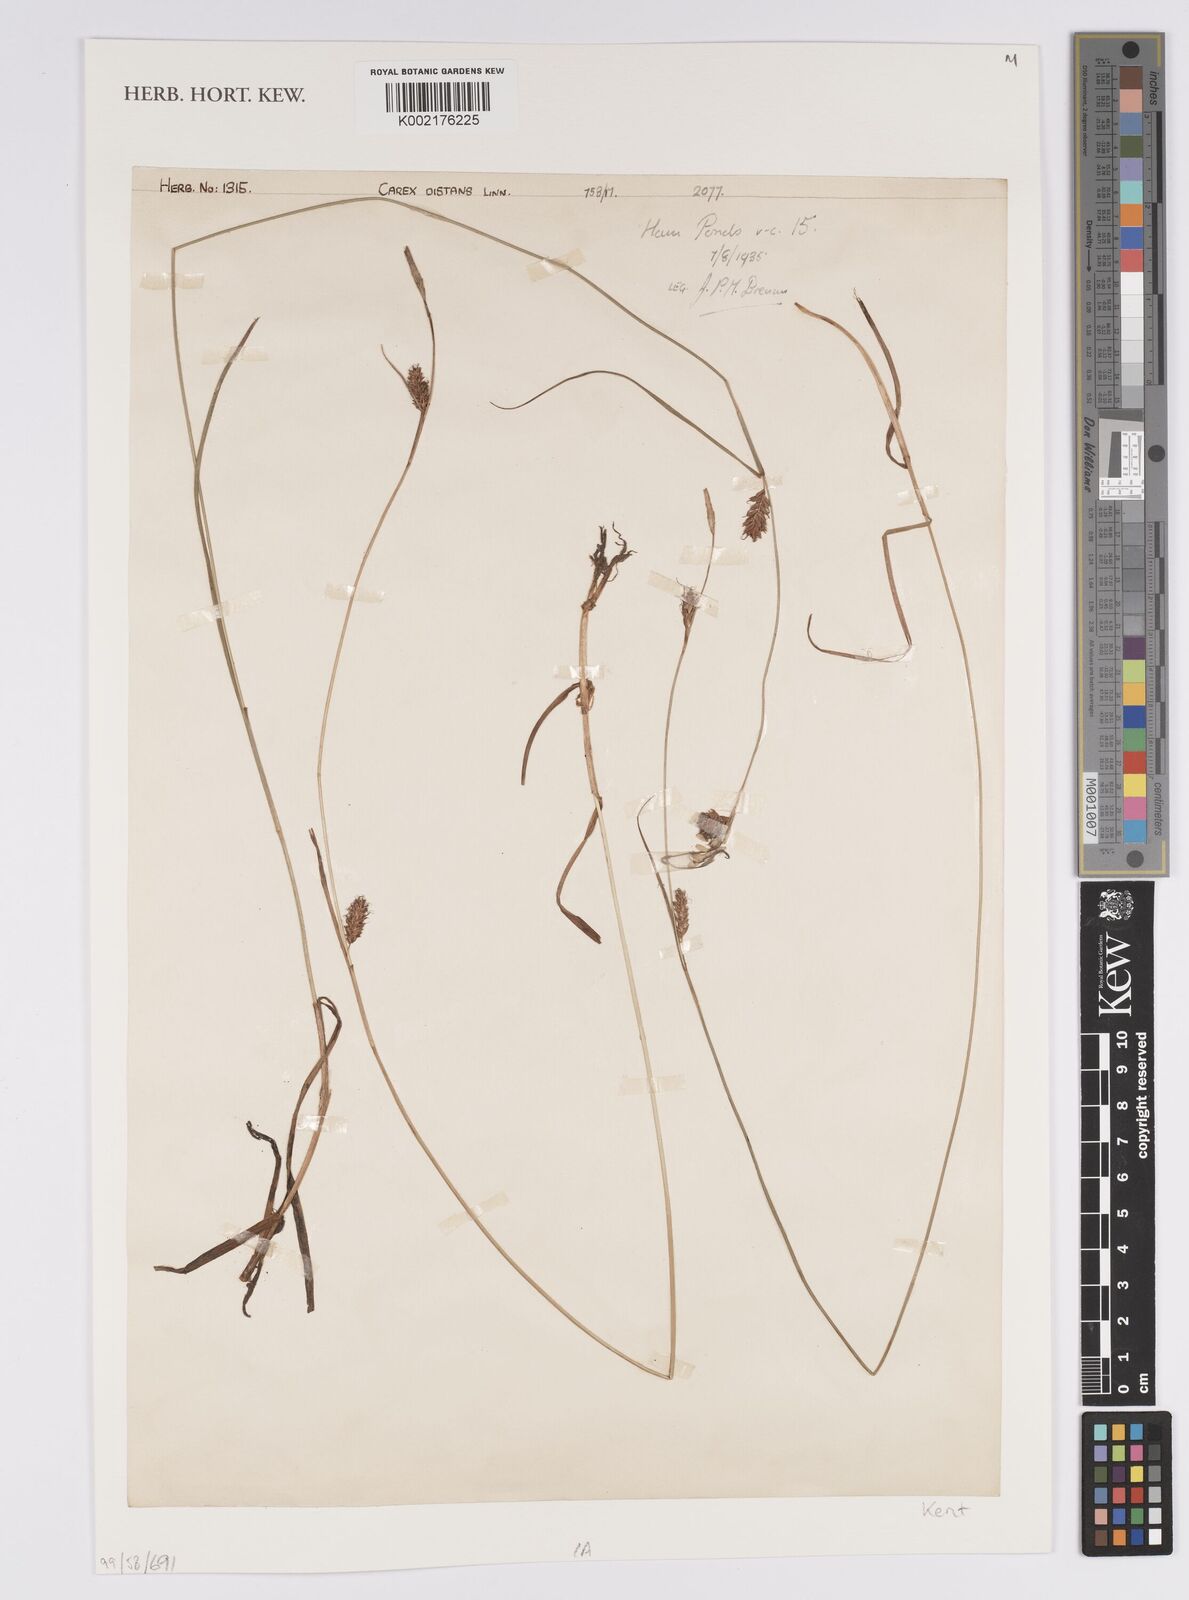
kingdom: Plantae
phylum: Tracheophyta
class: Liliopsida
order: Poales
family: Cyperaceae
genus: Carex
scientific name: Carex distans
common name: Distant sedge
